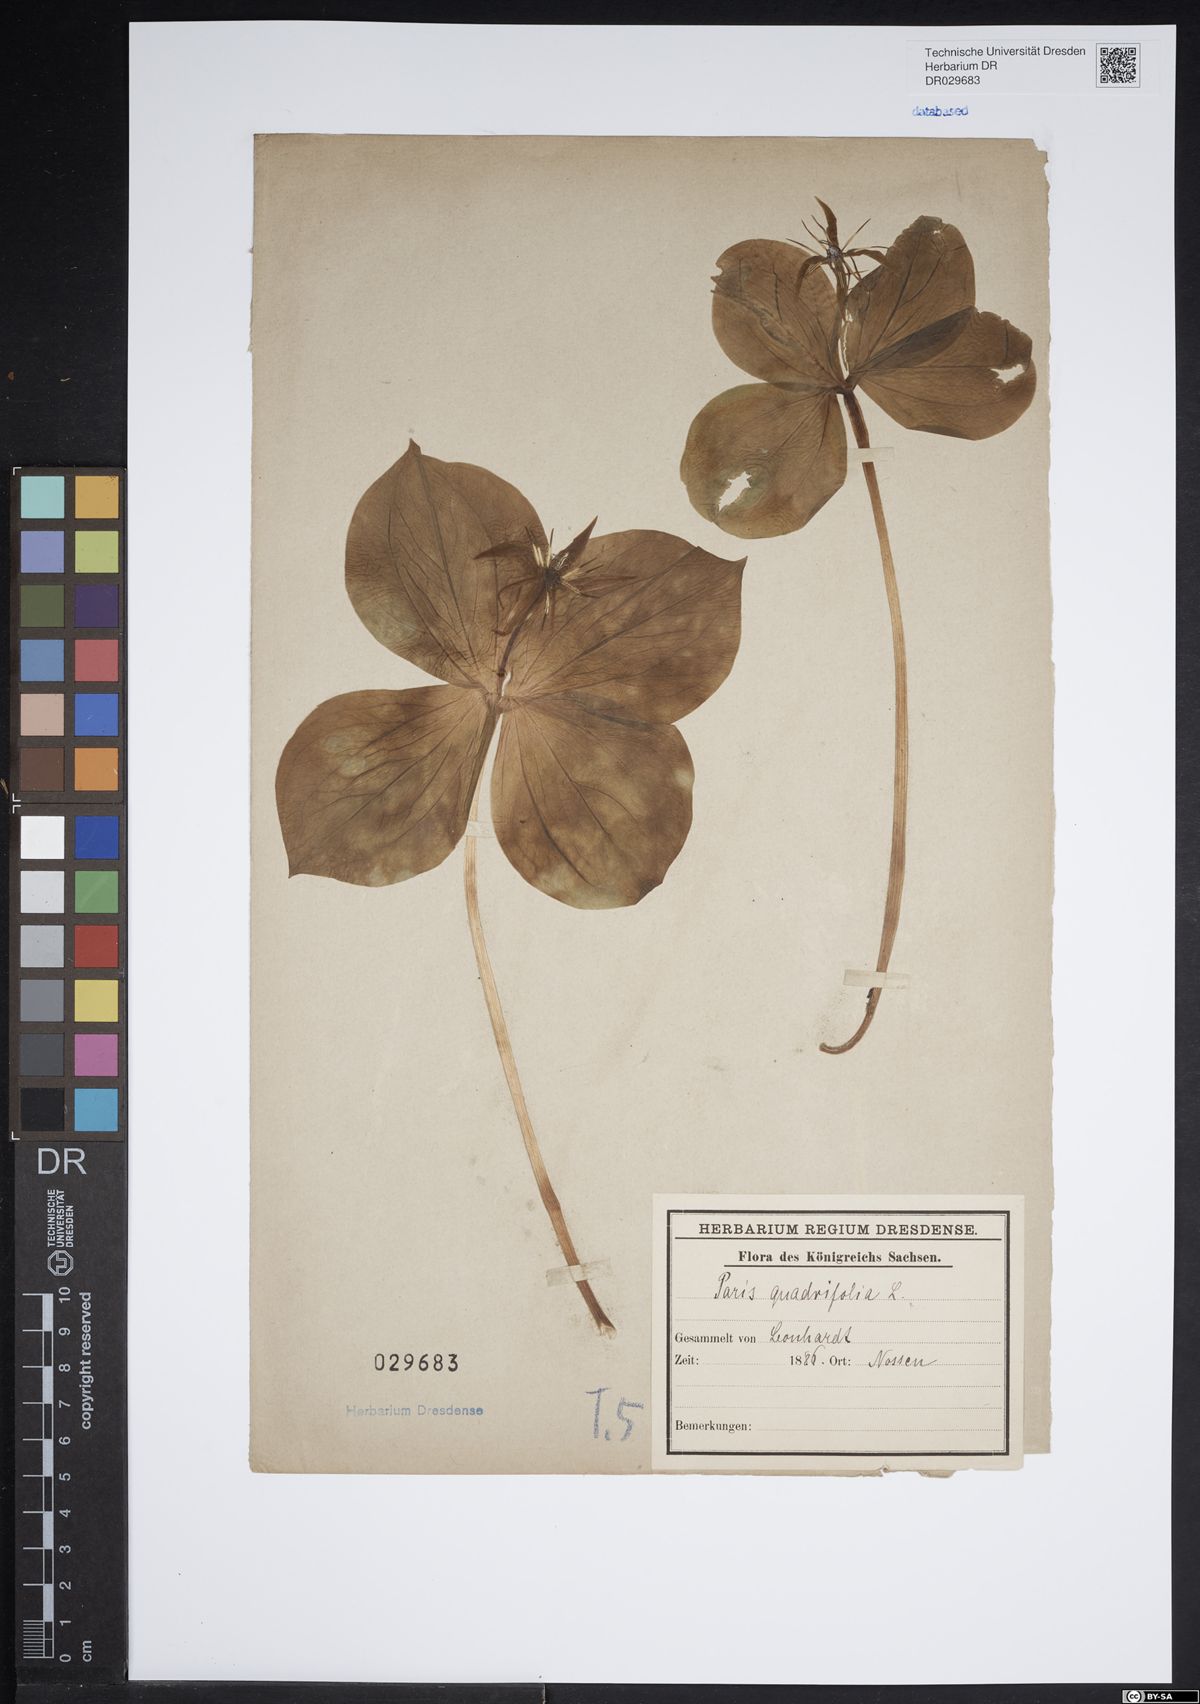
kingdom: Plantae
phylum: Tracheophyta
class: Liliopsida
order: Liliales
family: Melanthiaceae
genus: Paris
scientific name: Paris quadrifolia
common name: Herb-paris
